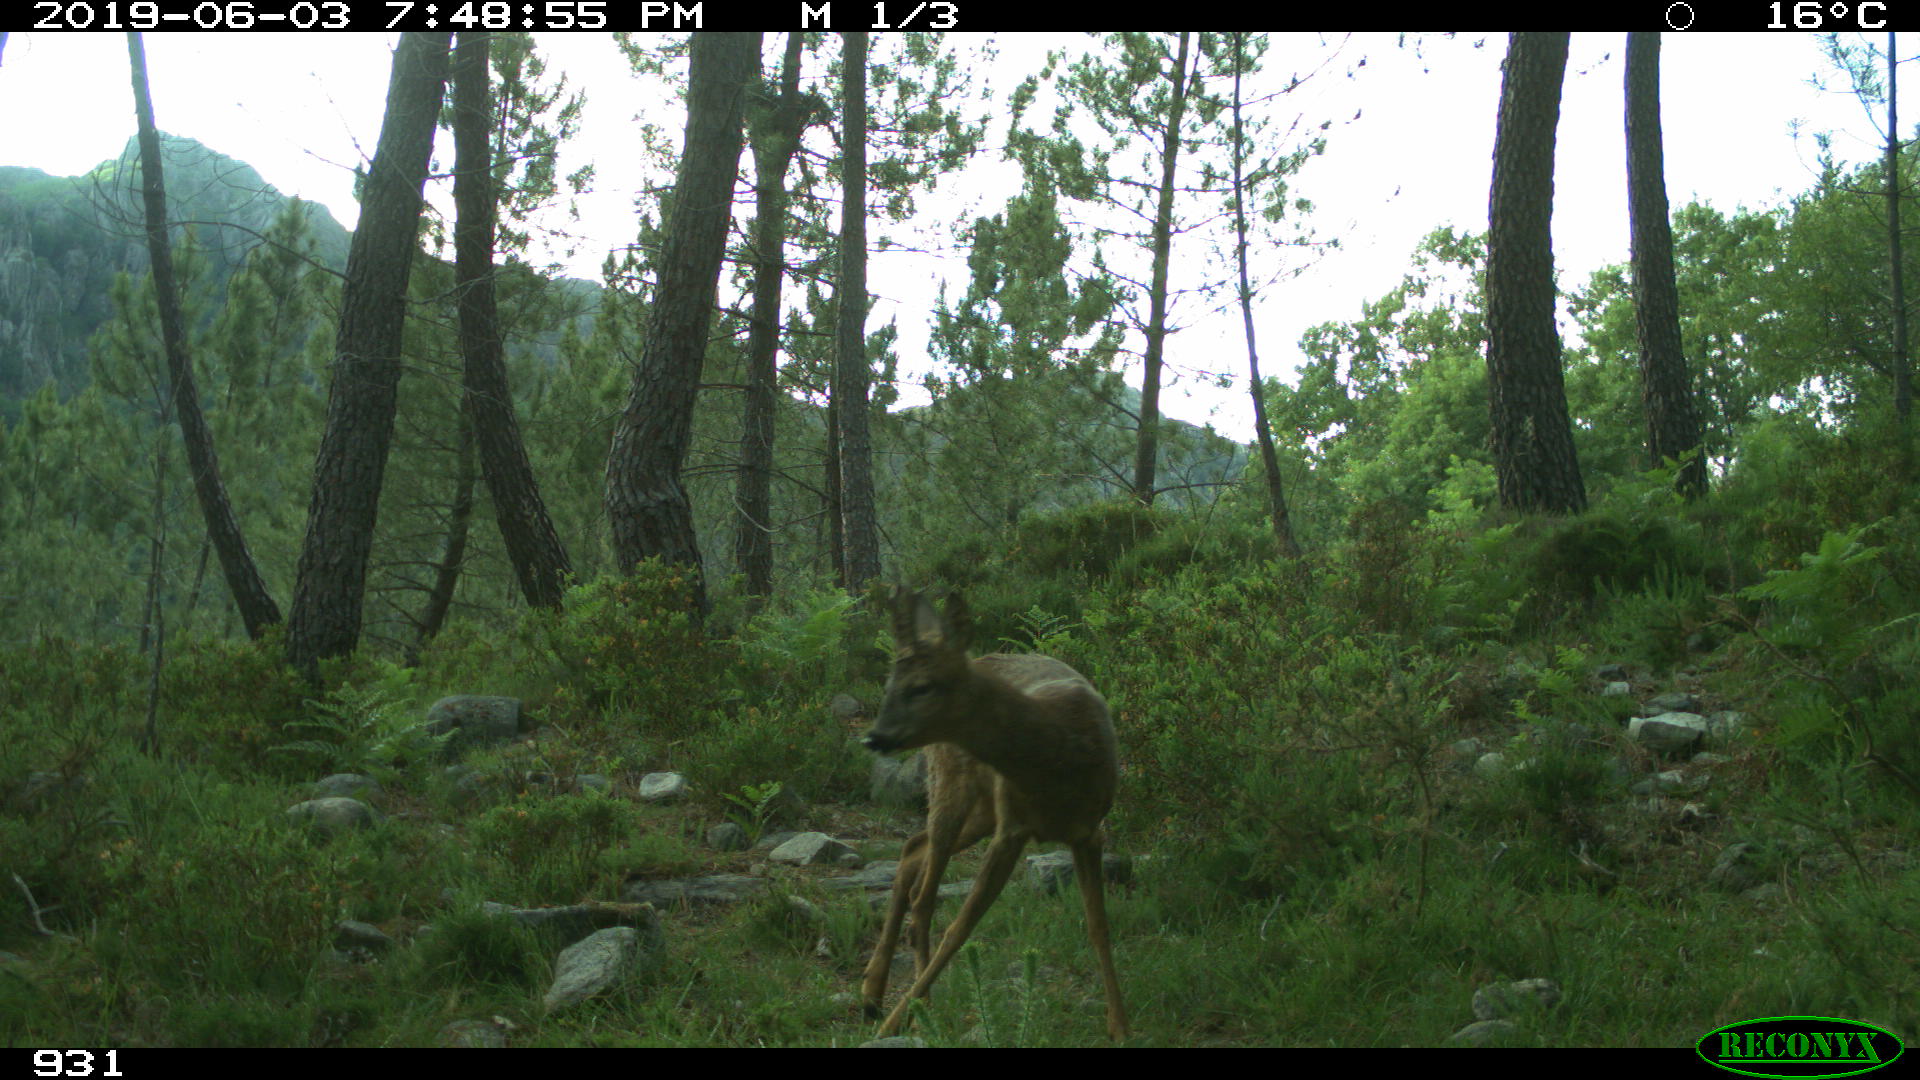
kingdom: Animalia
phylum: Chordata
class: Mammalia
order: Artiodactyla
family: Cervidae
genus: Capreolus
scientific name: Capreolus capreolus
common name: Western roe deer
